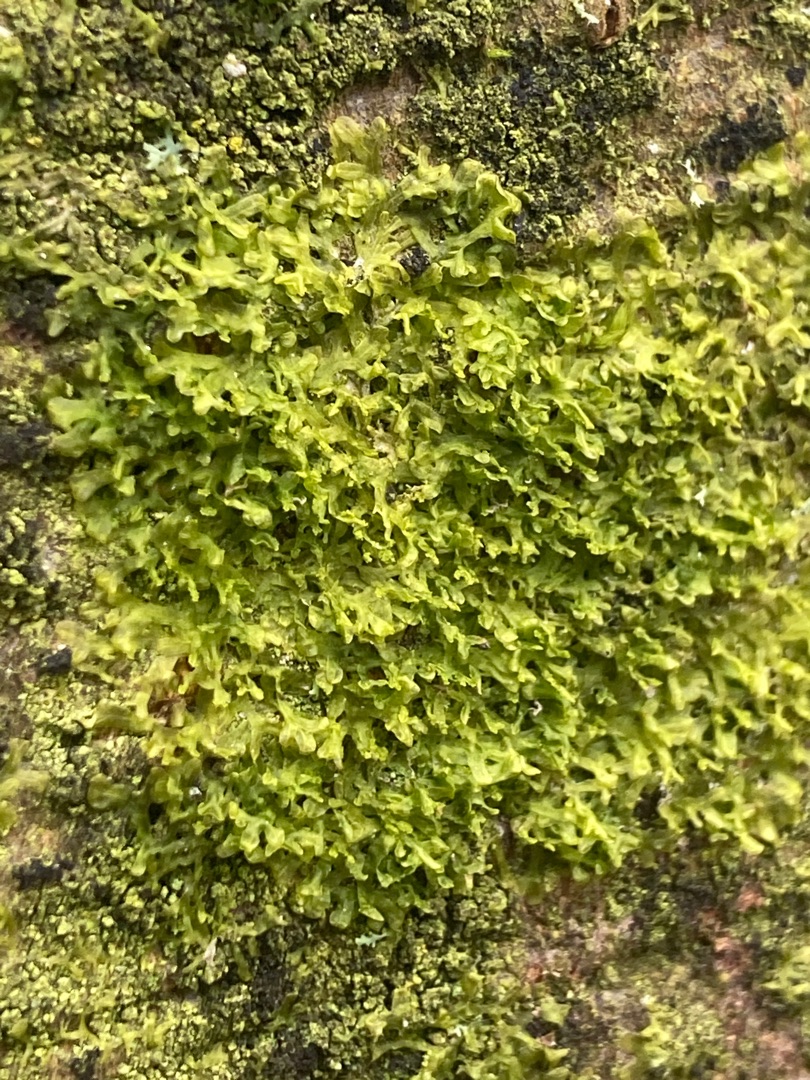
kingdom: Plantae
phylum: Marchantiophyta
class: Jungermanniopsida
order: Metzgeriales
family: Aneuraceae
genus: Riccardia
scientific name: Riccardia palmata
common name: Blågrøn gaffelløv
